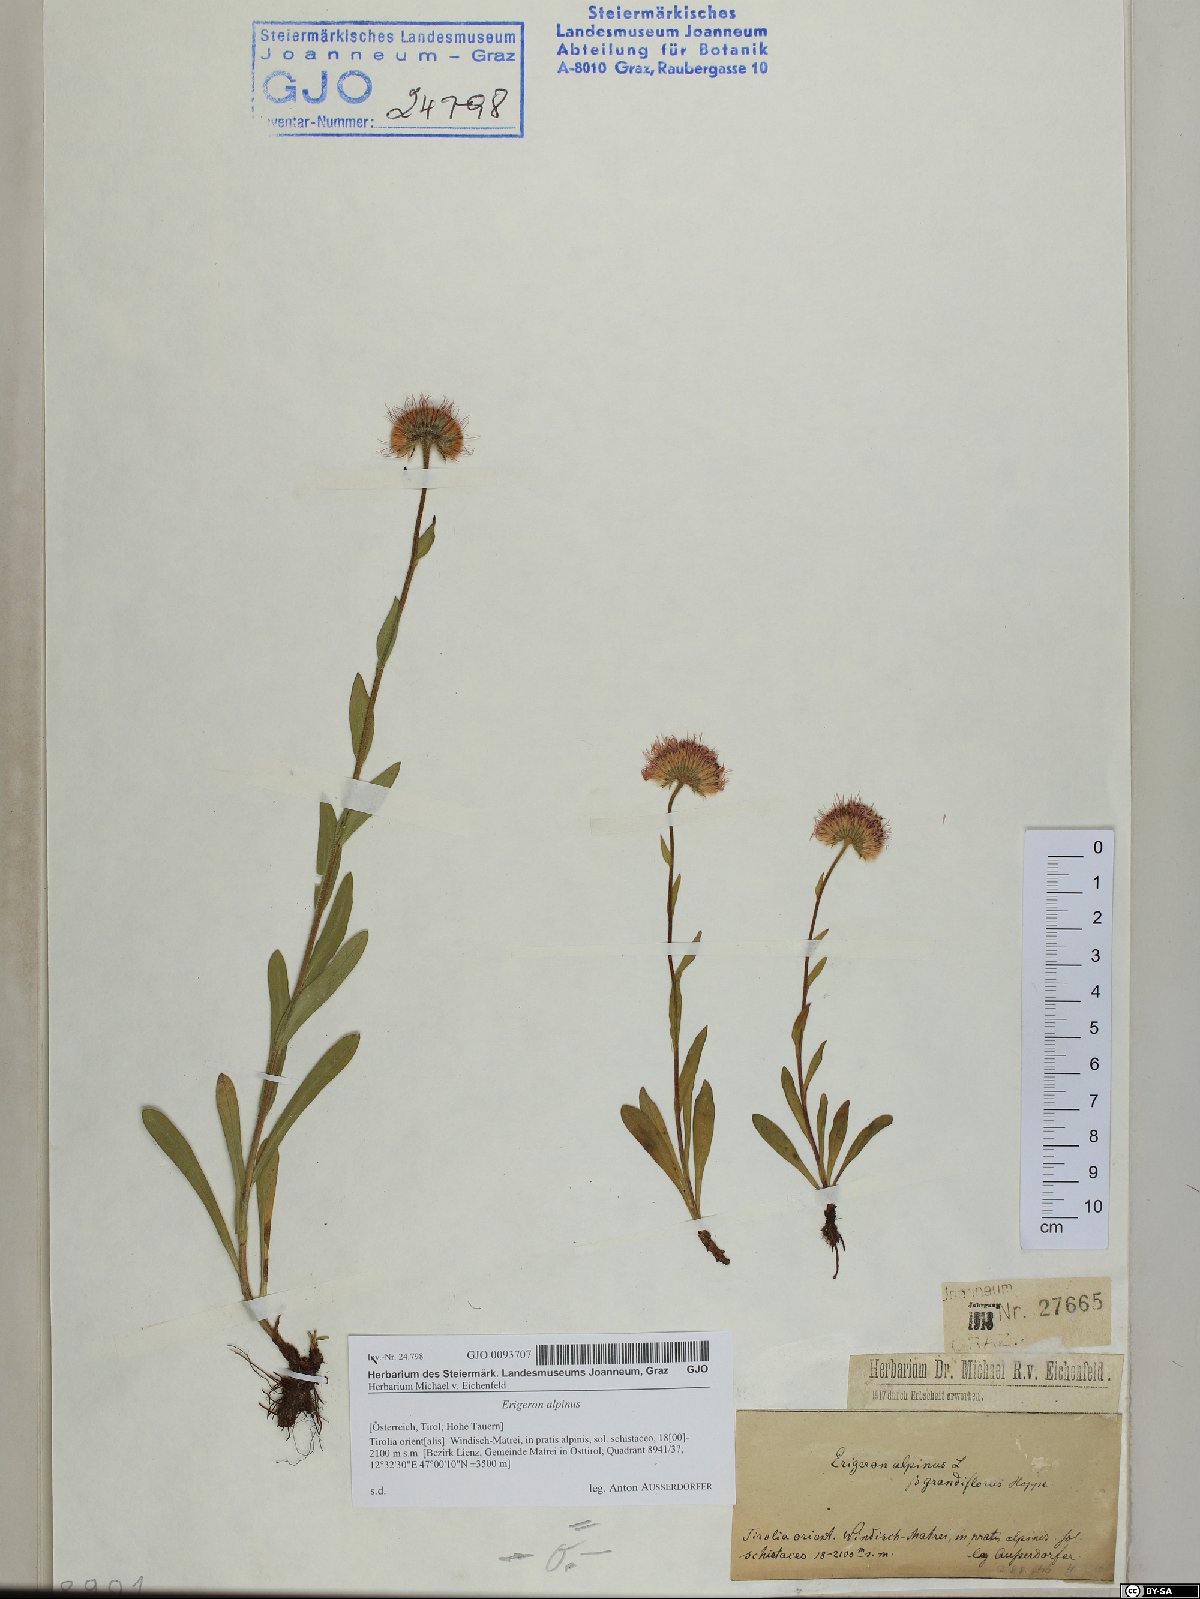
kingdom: Plantae
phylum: Tracheophyta
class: Magnoliopsida
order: Asterales
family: Asteraceae
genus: Erigeron
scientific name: Erigeron alpinus
